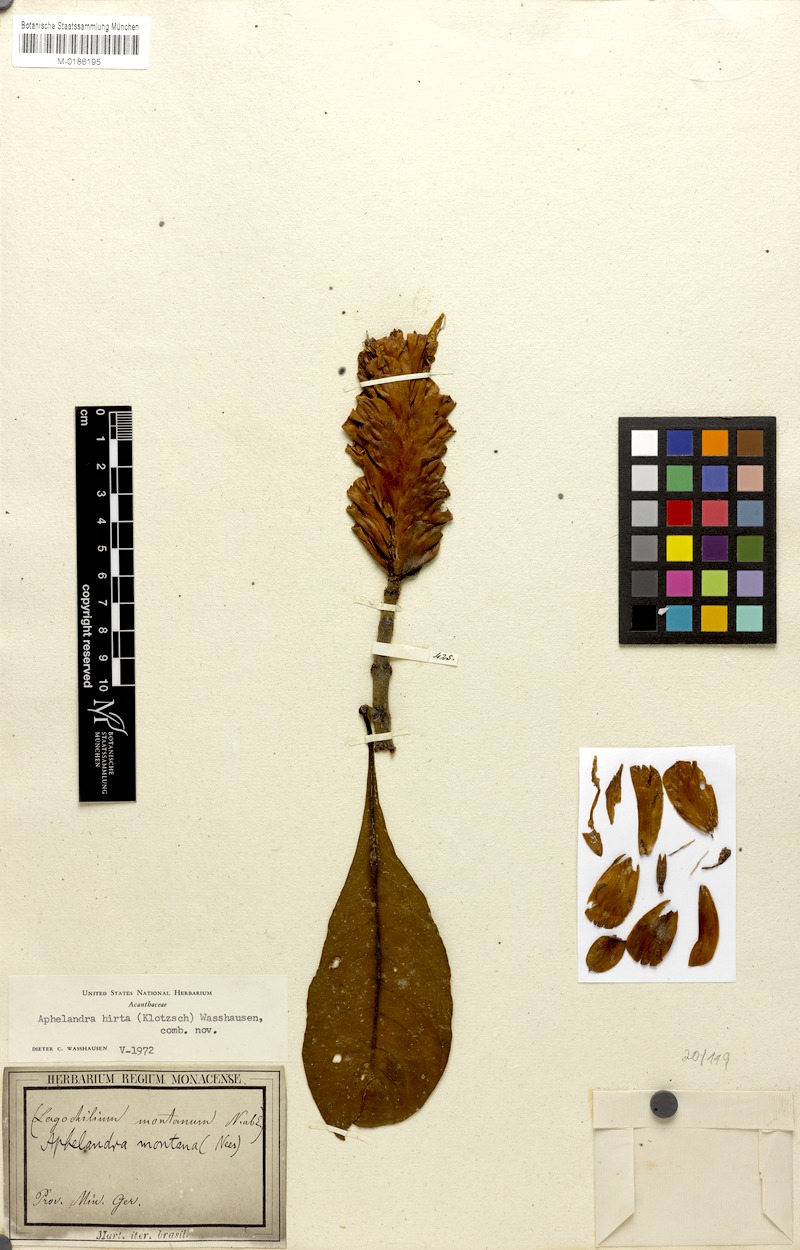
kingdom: Plantae
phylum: Tracheophyta
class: Magnoliopsida
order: Lamiales
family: Acanthaceae
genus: Aphelandra
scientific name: Aphelandra hirta
